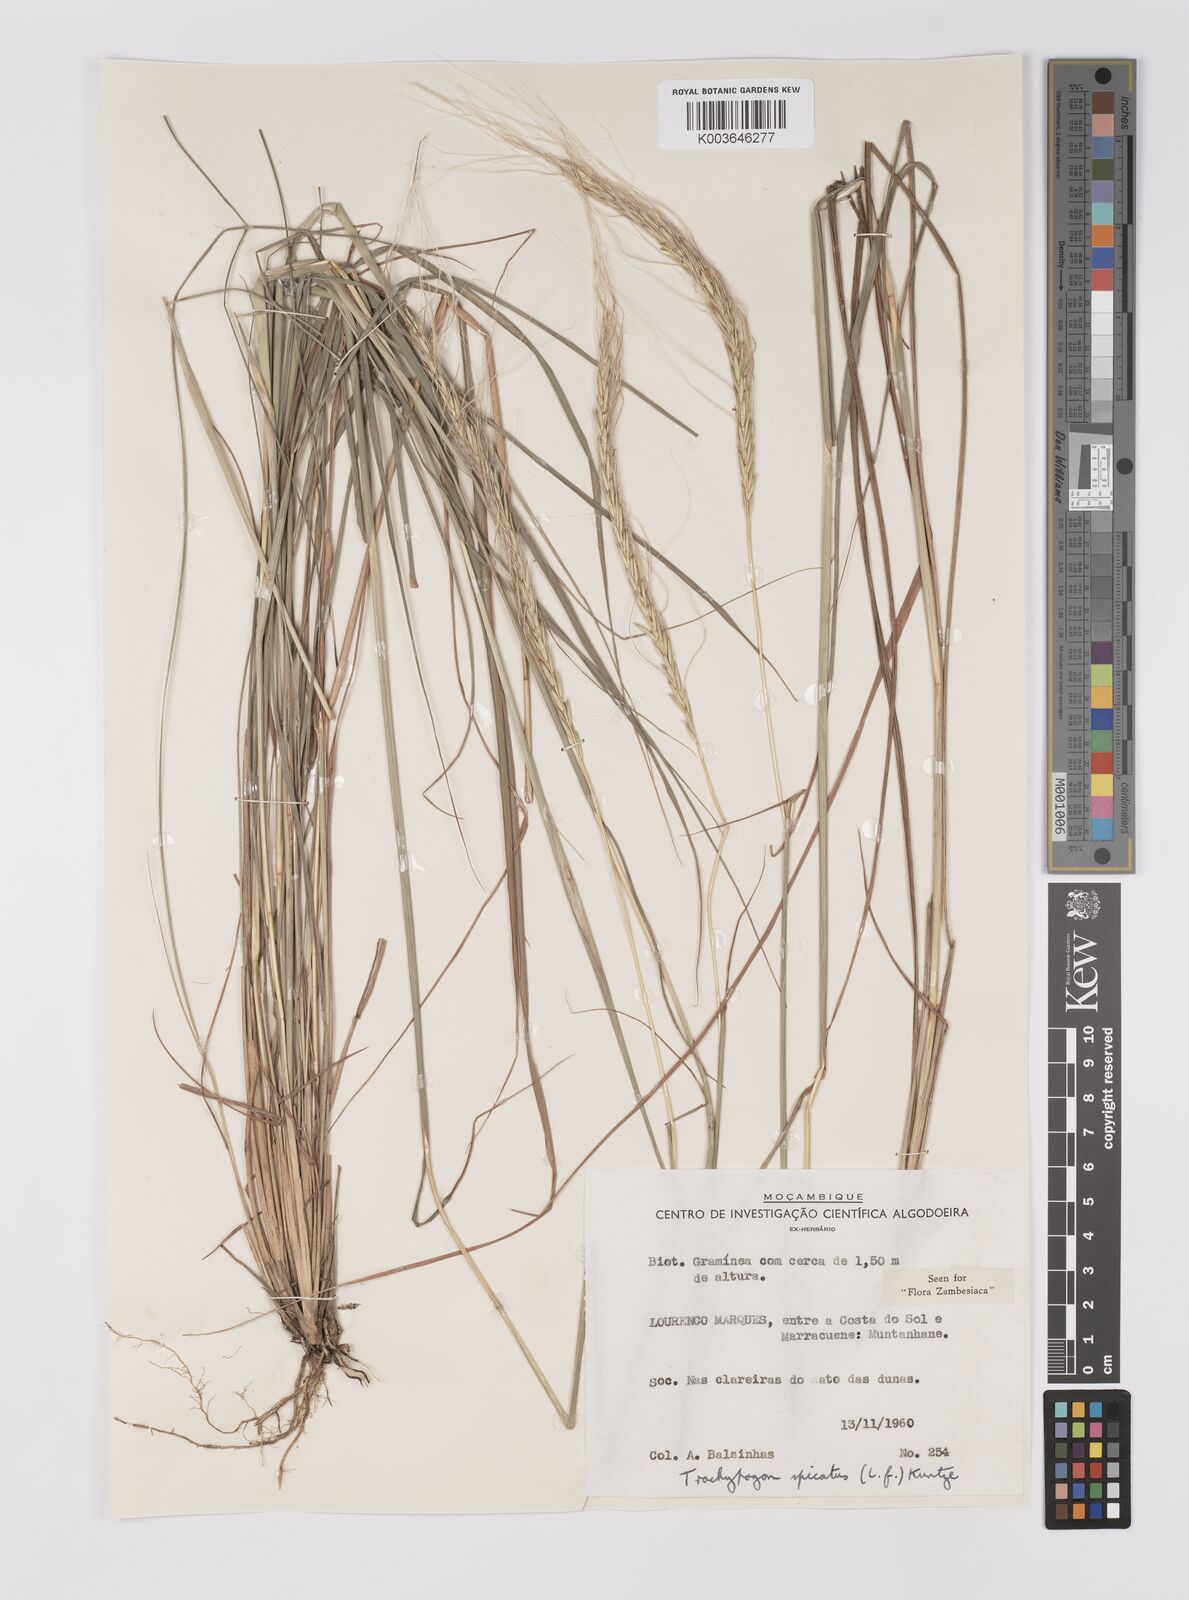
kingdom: Plantae
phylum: Tracheophyta
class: Liliopsida
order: Poales
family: Poaceae
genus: Trachypogon
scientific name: Trachypogon spicatus
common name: Crinkle-awn
